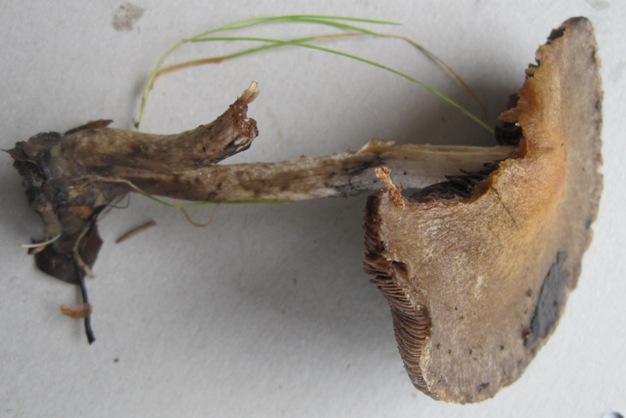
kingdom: Fungi
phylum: Basidiomycota
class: Agaricomycetes
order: Agaricales
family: Psathyrellaceae
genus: Lacrymaria
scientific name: Lacrymaria lacrymabunda
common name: grædende mørkhat
